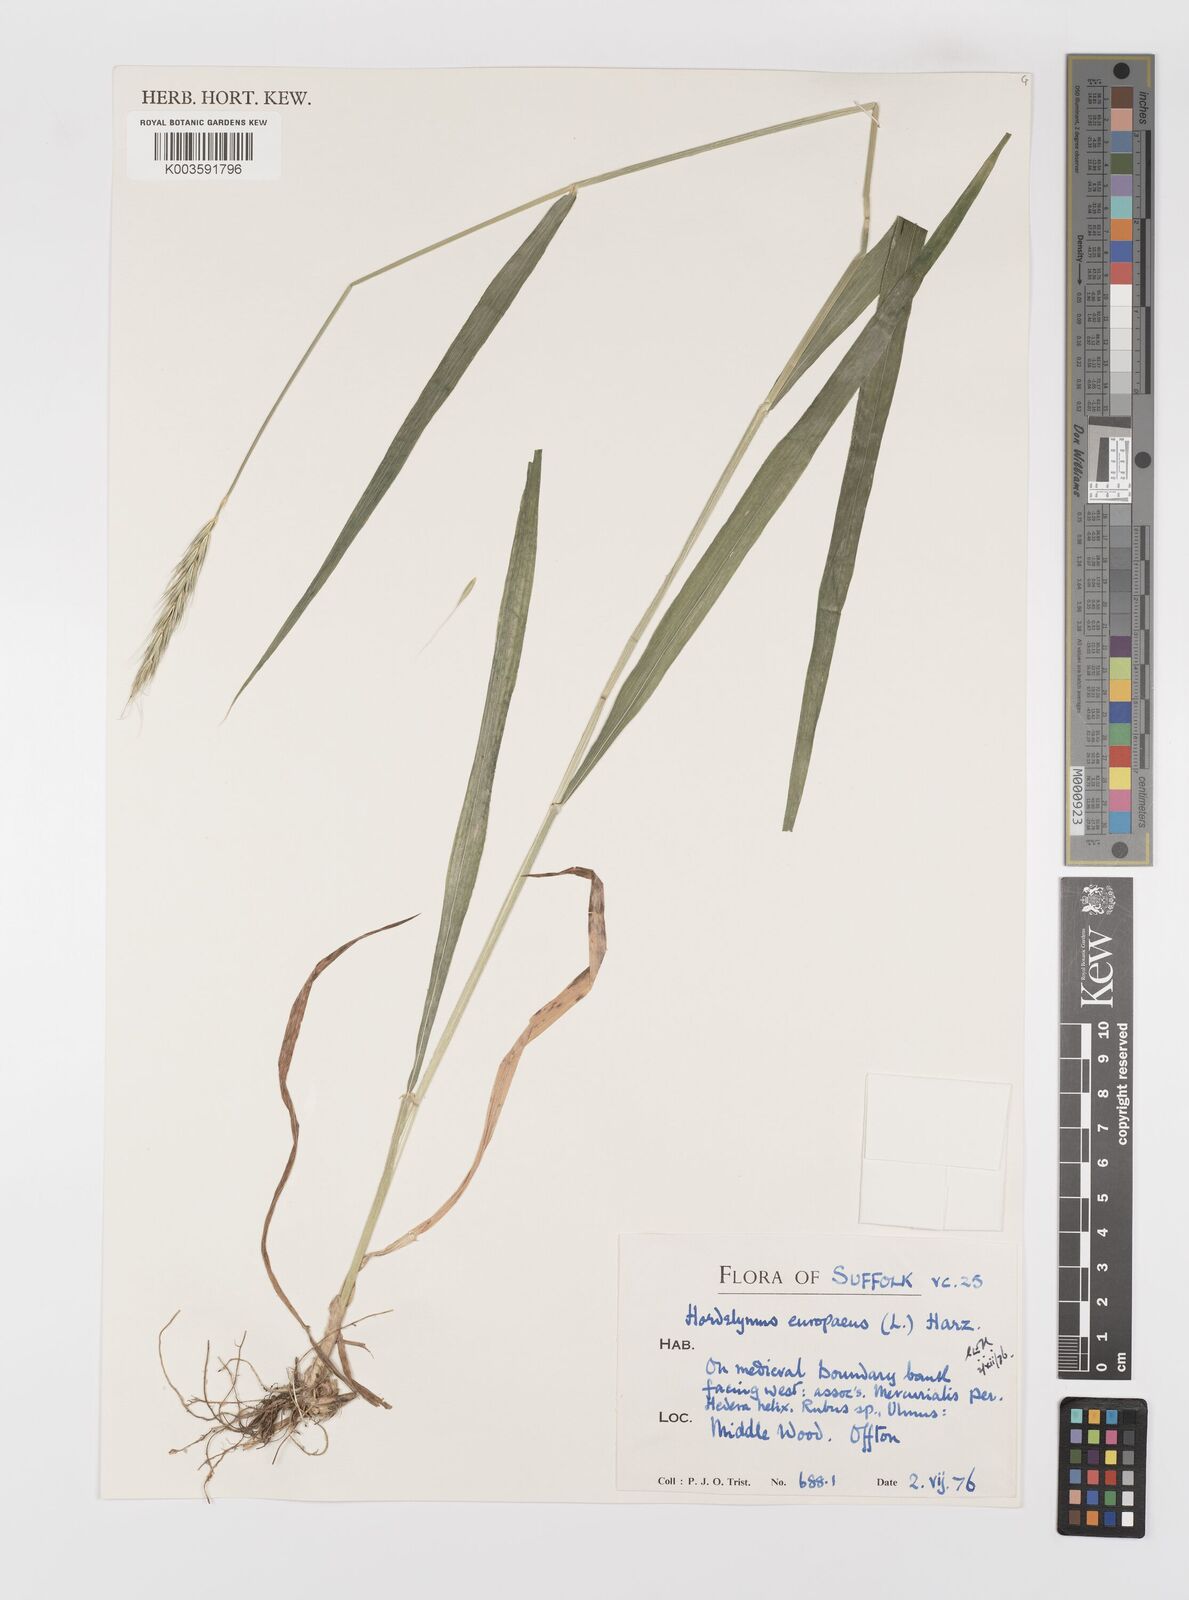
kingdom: Plantae
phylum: Tracheophyta
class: Liliopsida
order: Poales
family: Poaceae
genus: Hordelymus
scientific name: Hordelymus europaeus
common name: Wood-barley
